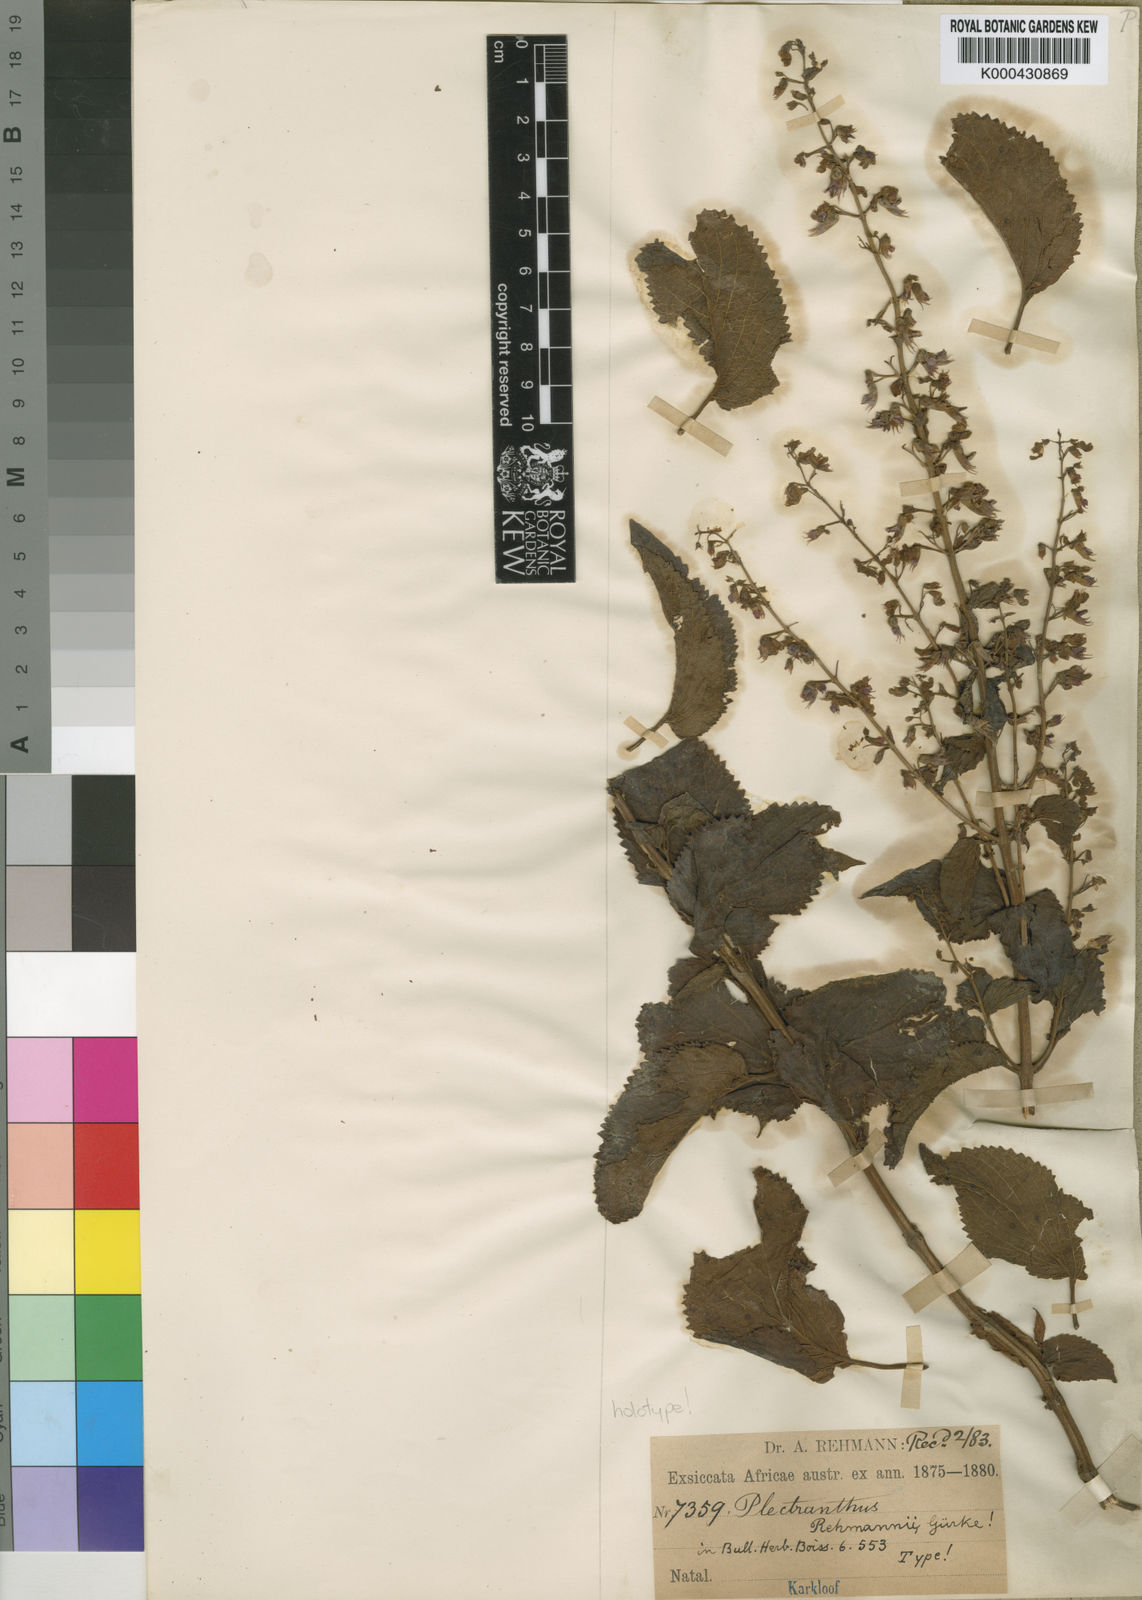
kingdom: Plantae
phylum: Tracheophyta
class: Magnoliopsida
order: Lamiales
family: Lamiaceae
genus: Plectranthus
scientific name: Plectranthus
